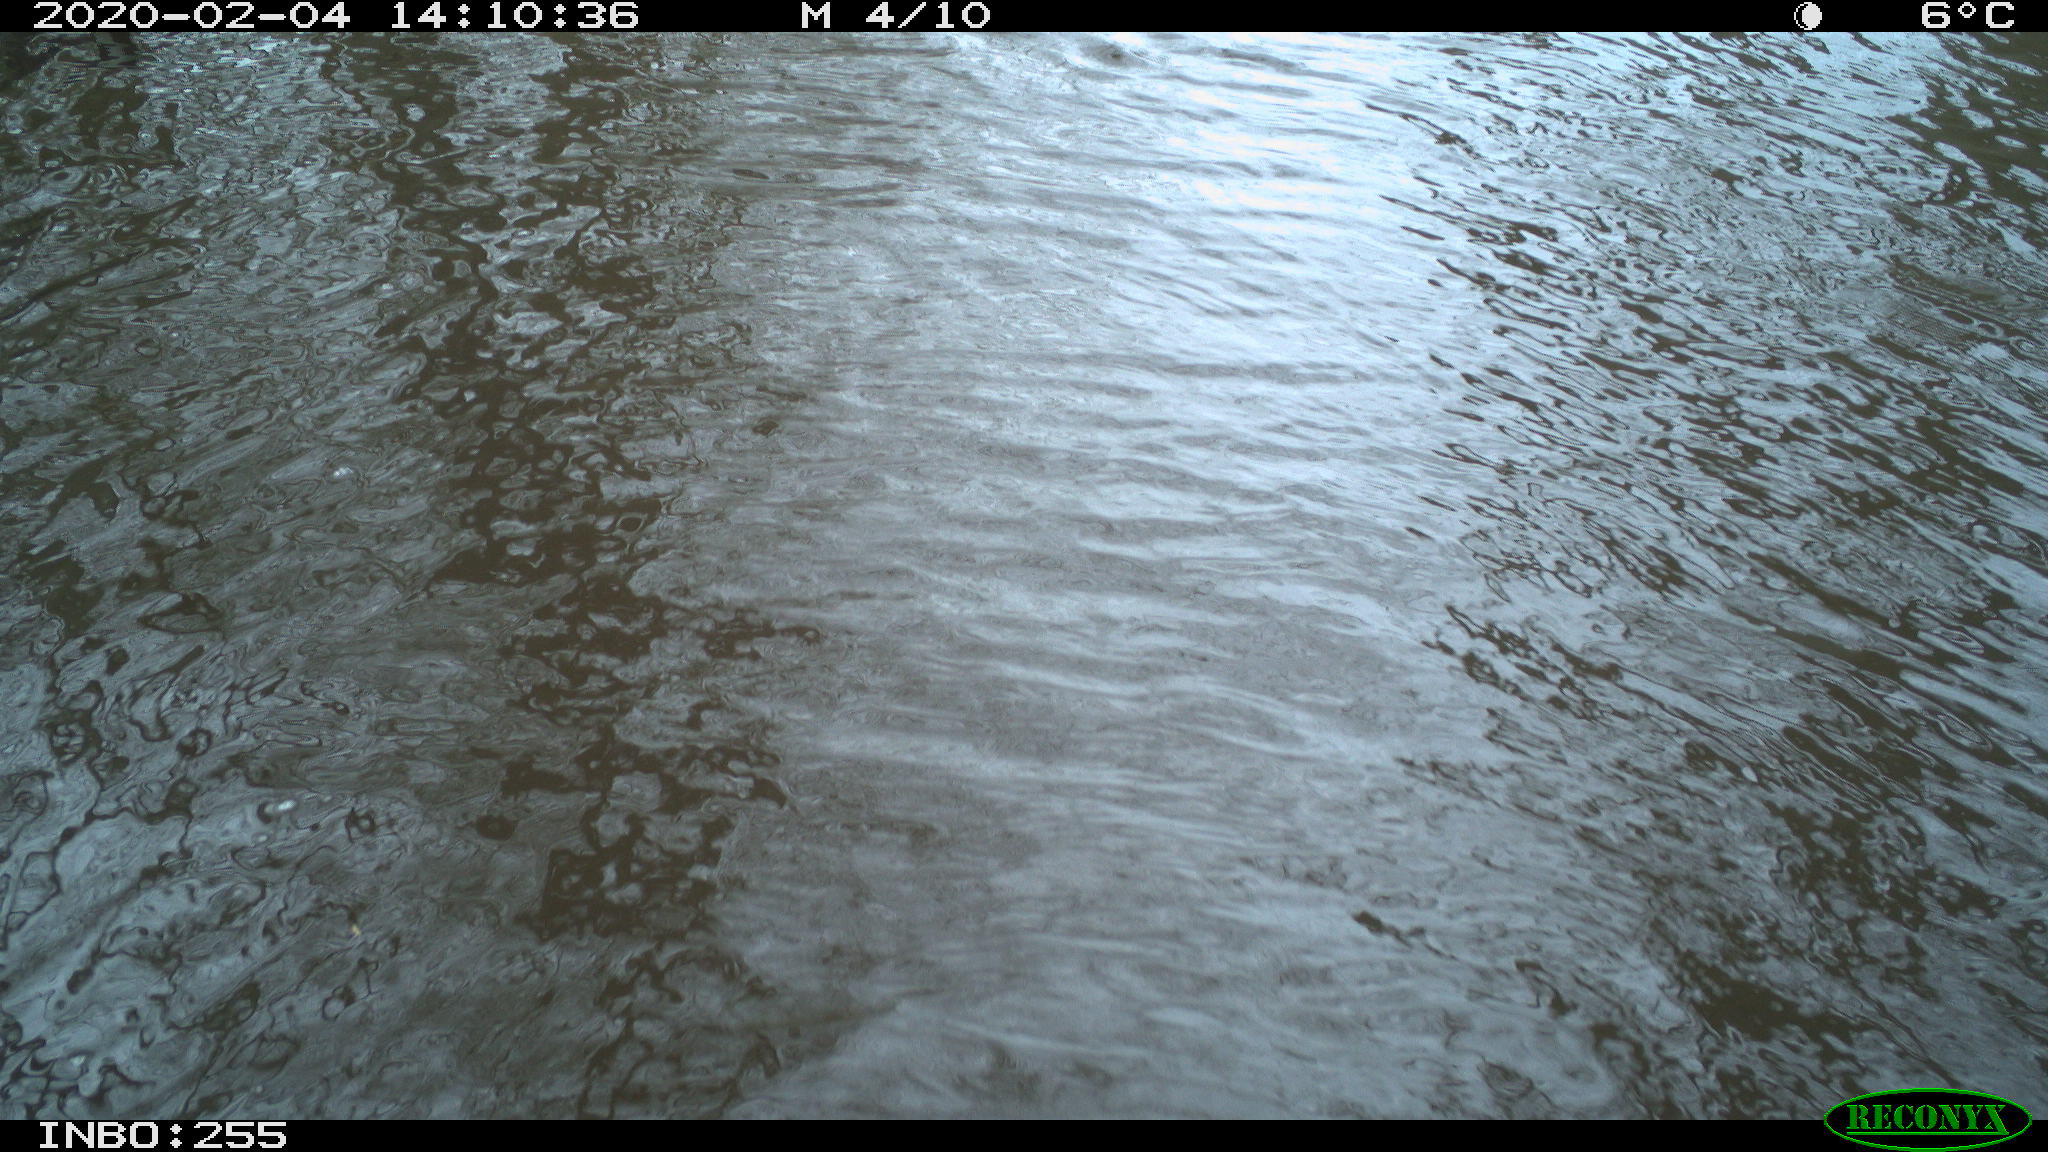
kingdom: Animalia
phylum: Chordata
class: Aves
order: Gruiformes
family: Rallidae
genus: Gallinula
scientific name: Gallinula chloropus
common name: Common moorhen
